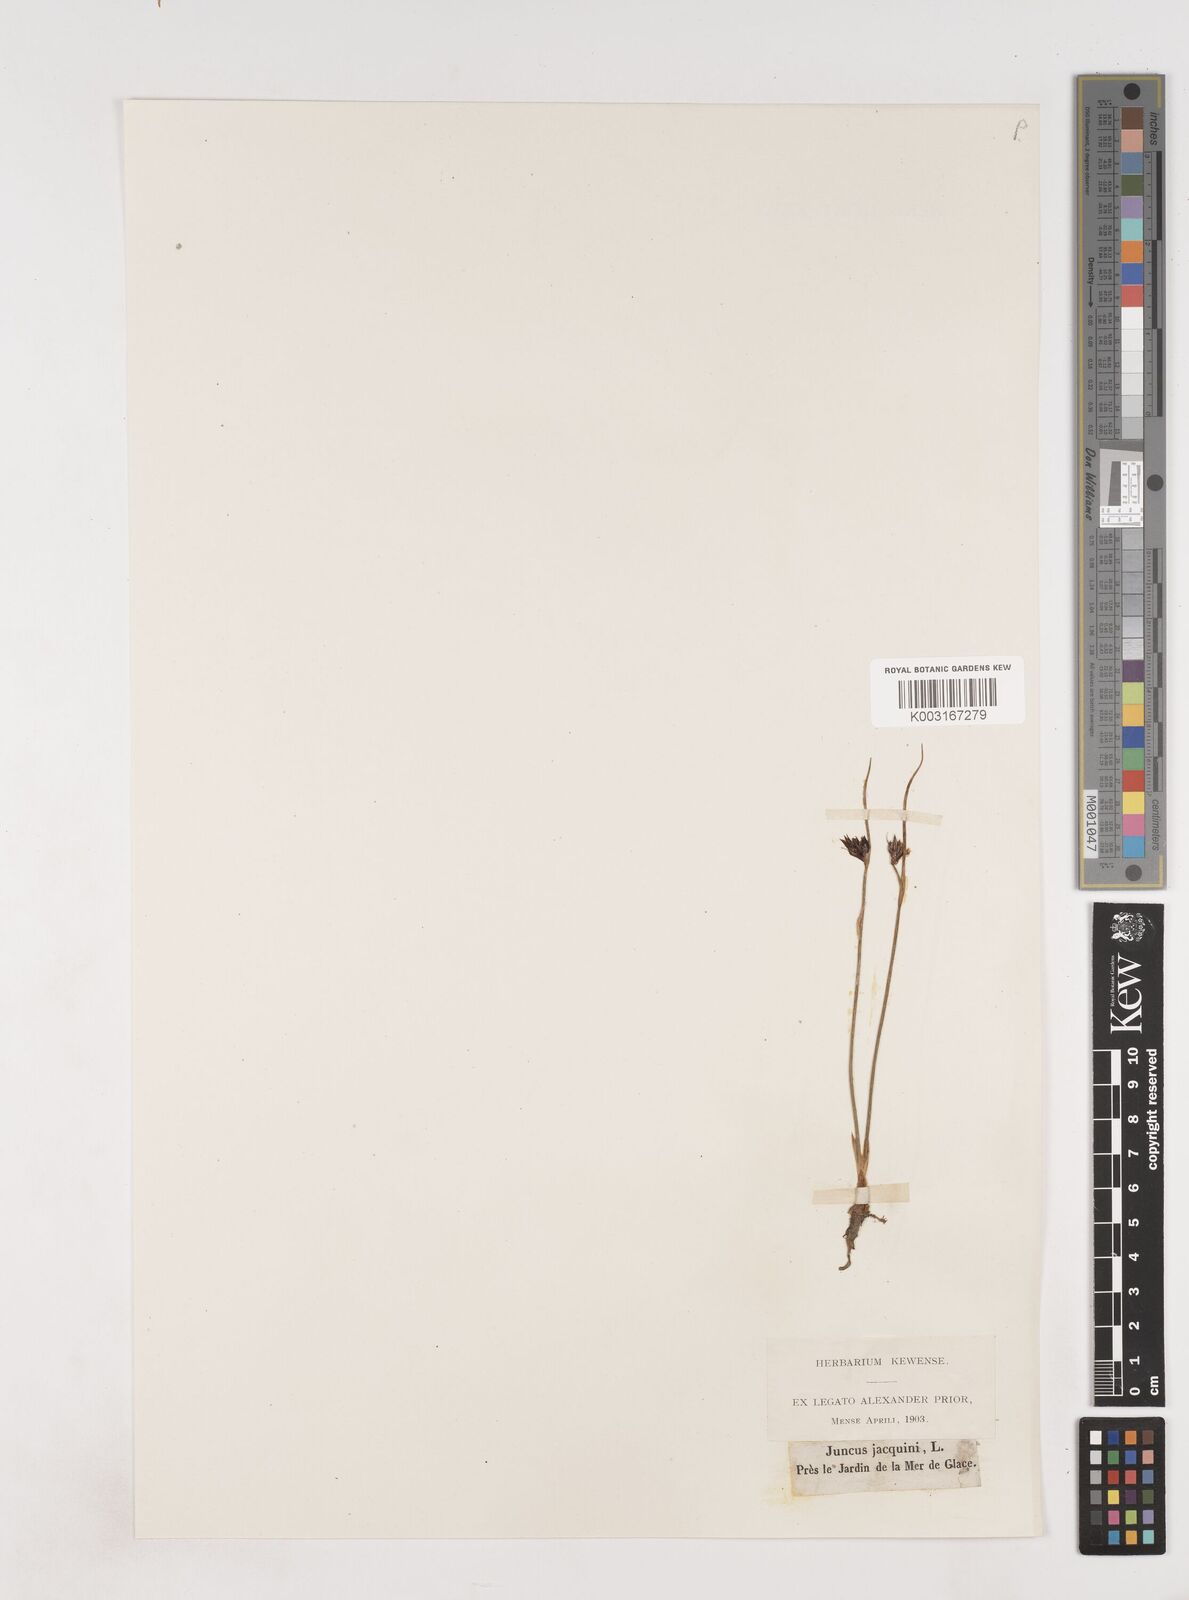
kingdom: Plantae
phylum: Tracheophyta
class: Liliopsida
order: Poales
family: Juncaceae
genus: Juncus
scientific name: Juncus jacquinii
